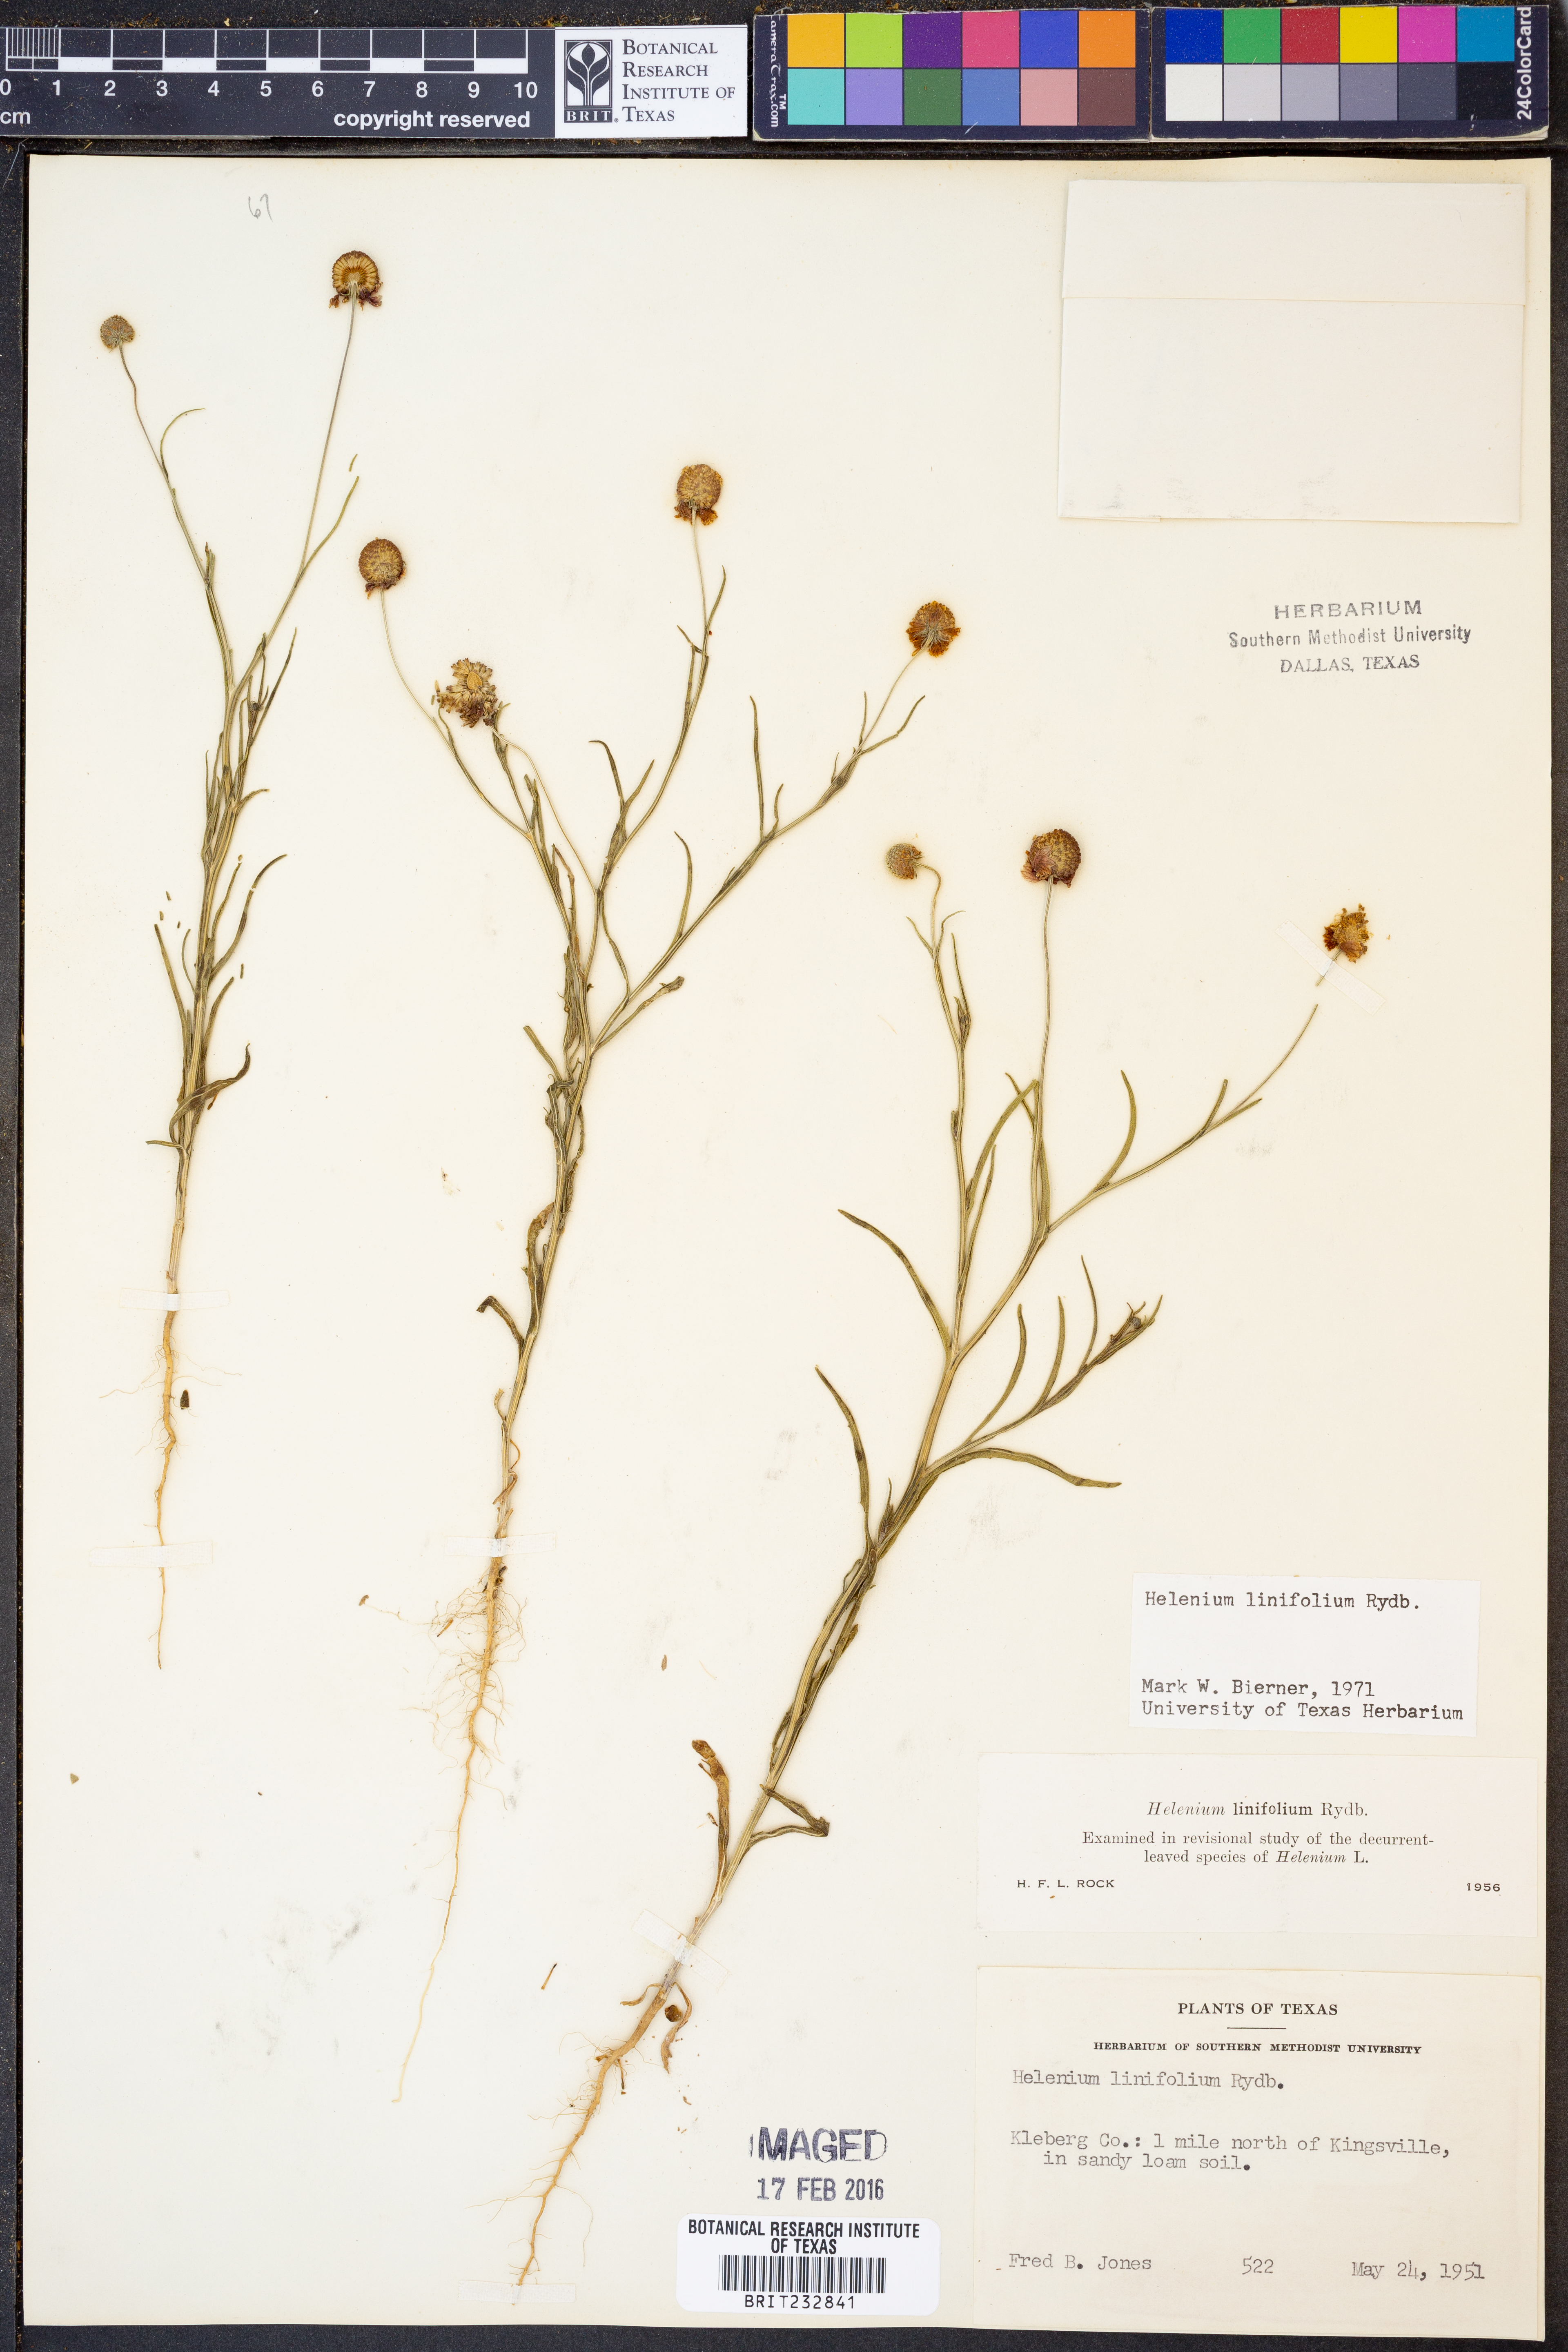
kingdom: Plantae
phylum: Tracheophyta
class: Magnoliopsida
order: Asterales
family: Asteraceae
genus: Helenium
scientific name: Helenium linifolium
